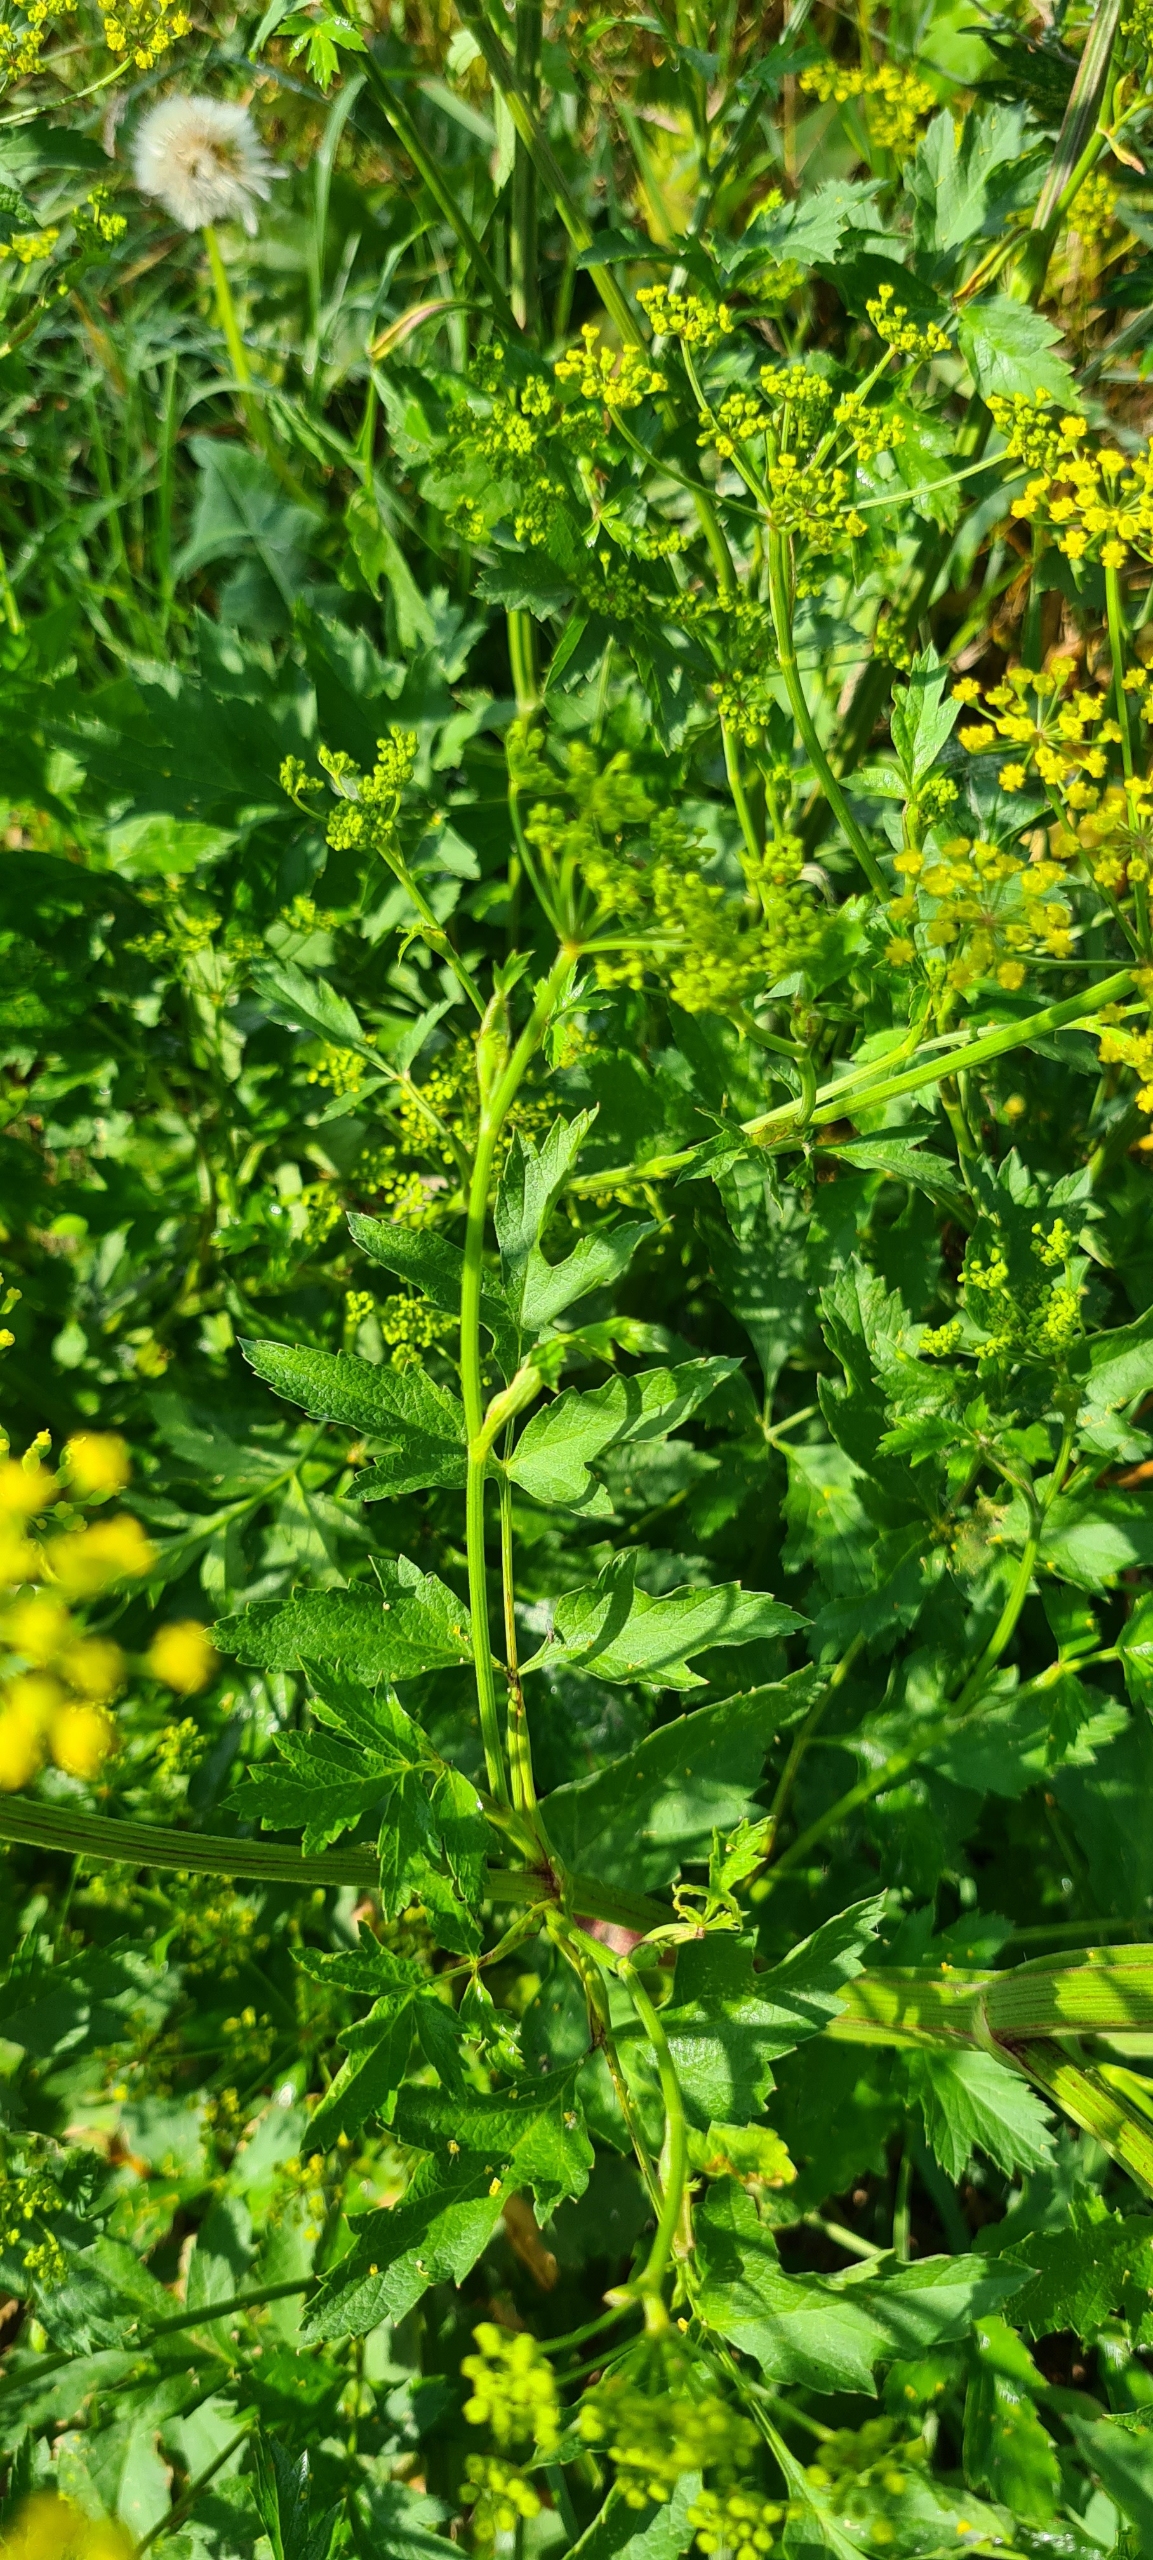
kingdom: Plantae
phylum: Tracheophyta
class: Magnoliopsida
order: Apiales
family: Apiaceae
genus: Pastinaca
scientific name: Pastinaca sativa
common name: Pastinak
